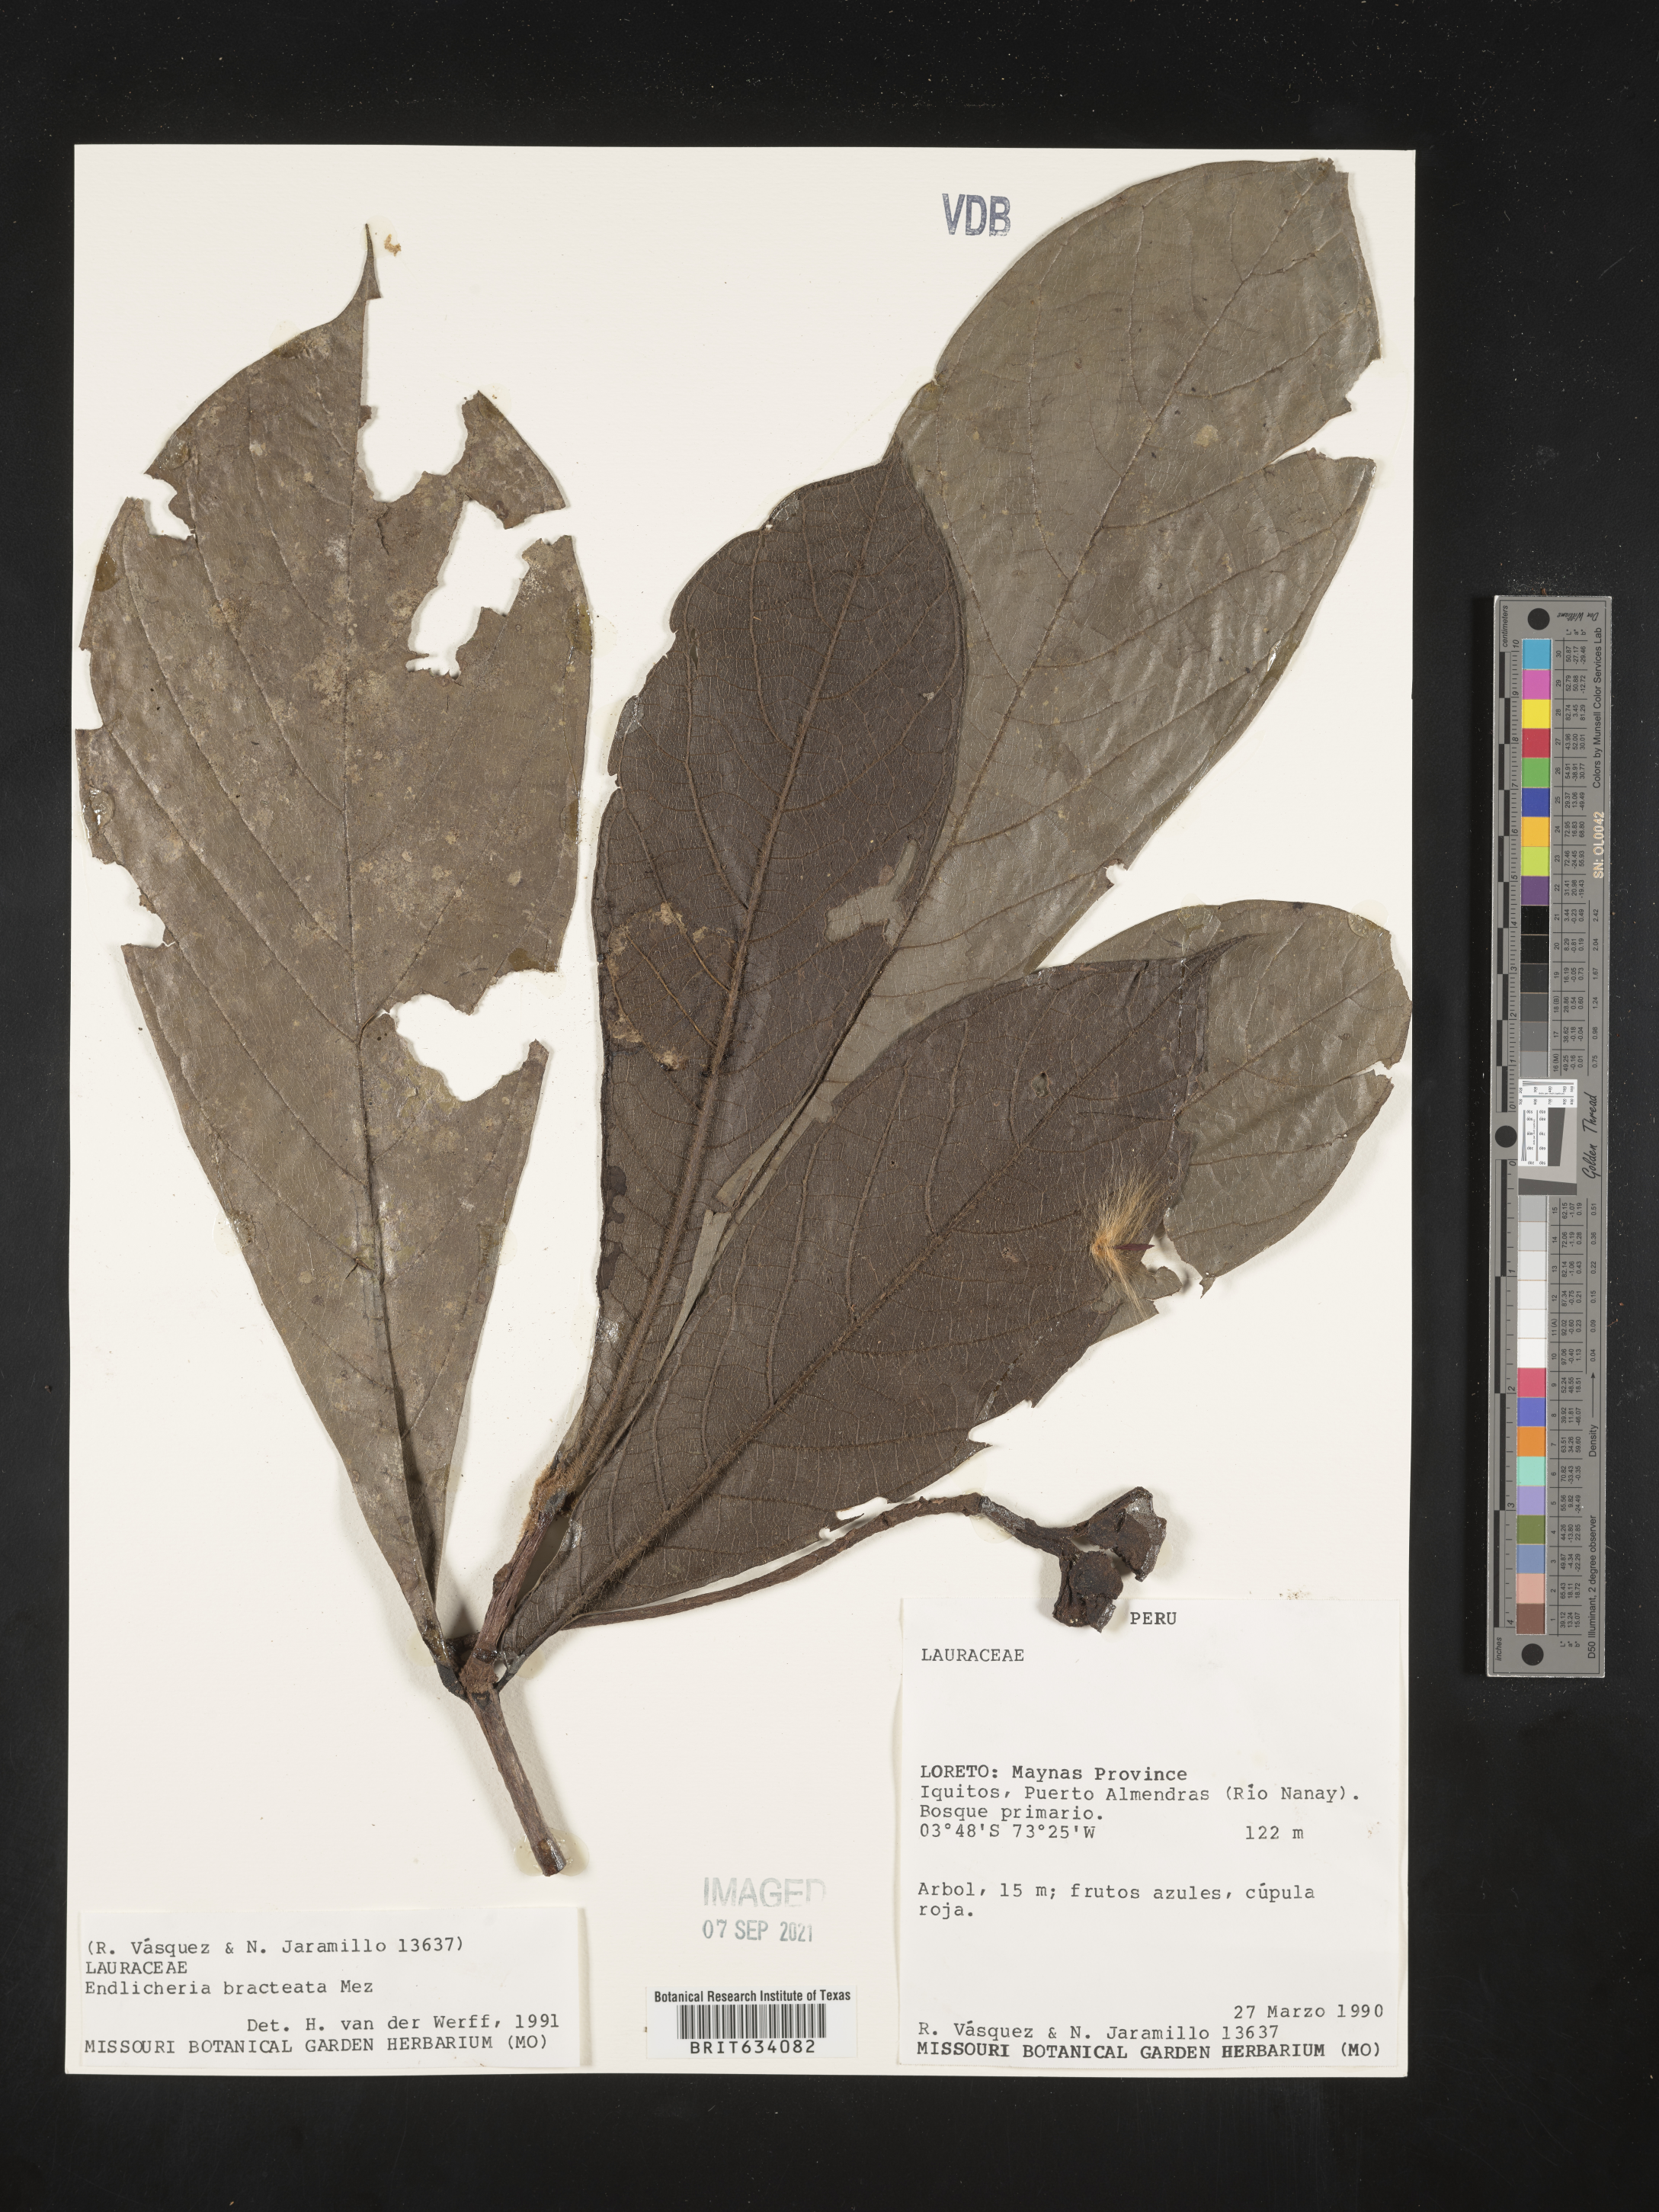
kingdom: Plantae
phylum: Tracheophyta
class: Magnoliopsida
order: Laurales
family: Lauraceae
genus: Endlicheria
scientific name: Endlicheria
